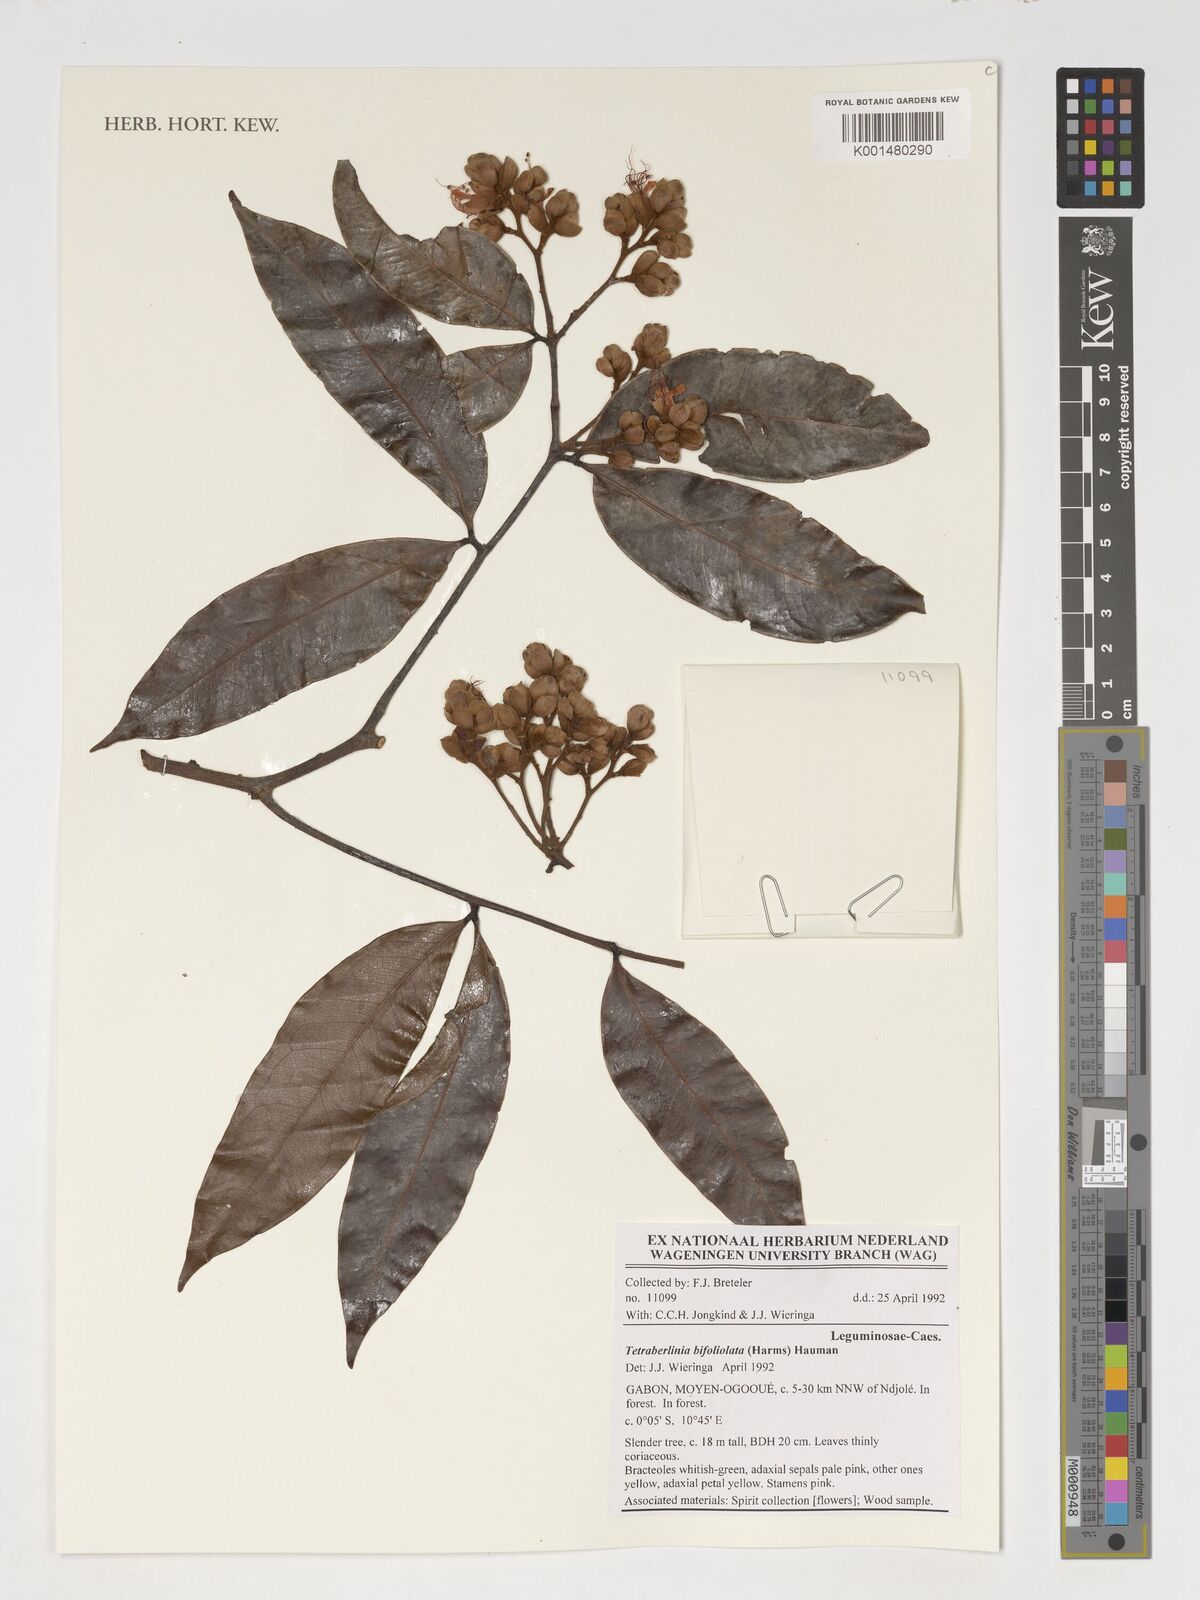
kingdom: Plantae
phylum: Tracheophyta
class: Magnoliopsida
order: Fabales
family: Fabaceae
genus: Tetraberlinia
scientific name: Tetraberlinia bifoliolata
